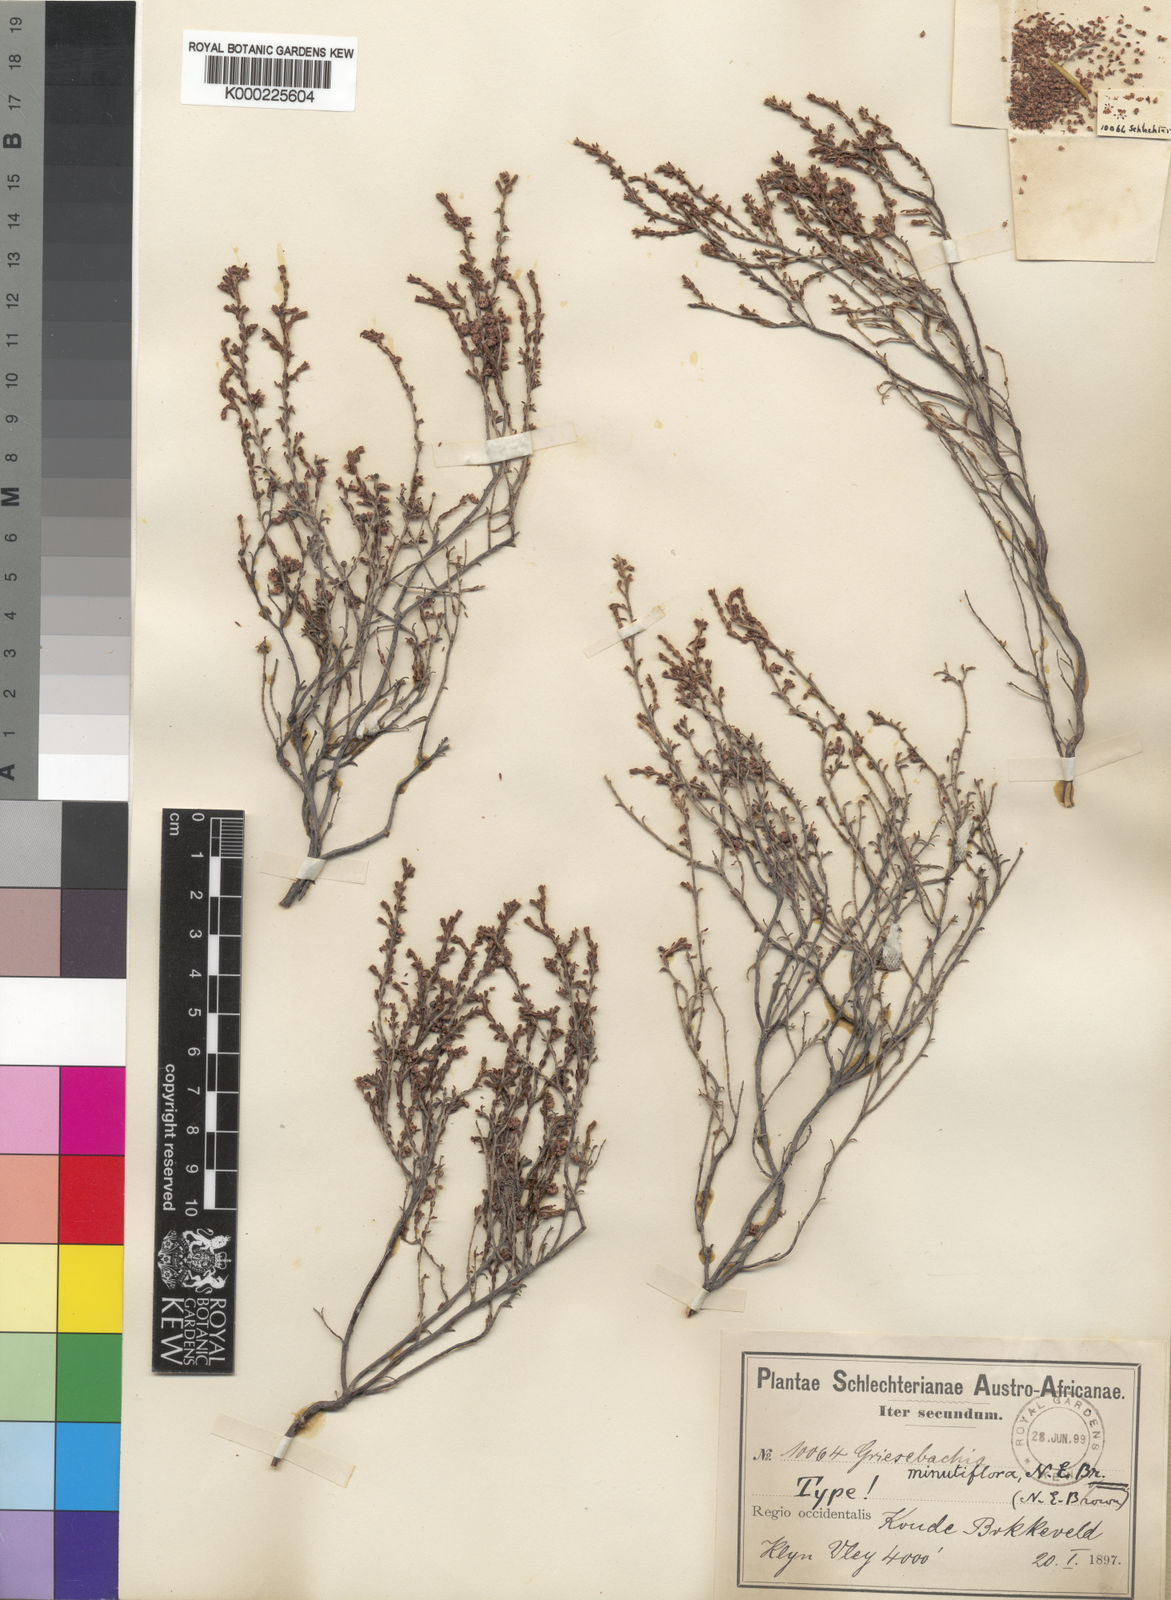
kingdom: Plantae
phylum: Tracheophyta
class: Magnoliopsida
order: Ericales
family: Ericaceae
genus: Erica
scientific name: Erica caprina
